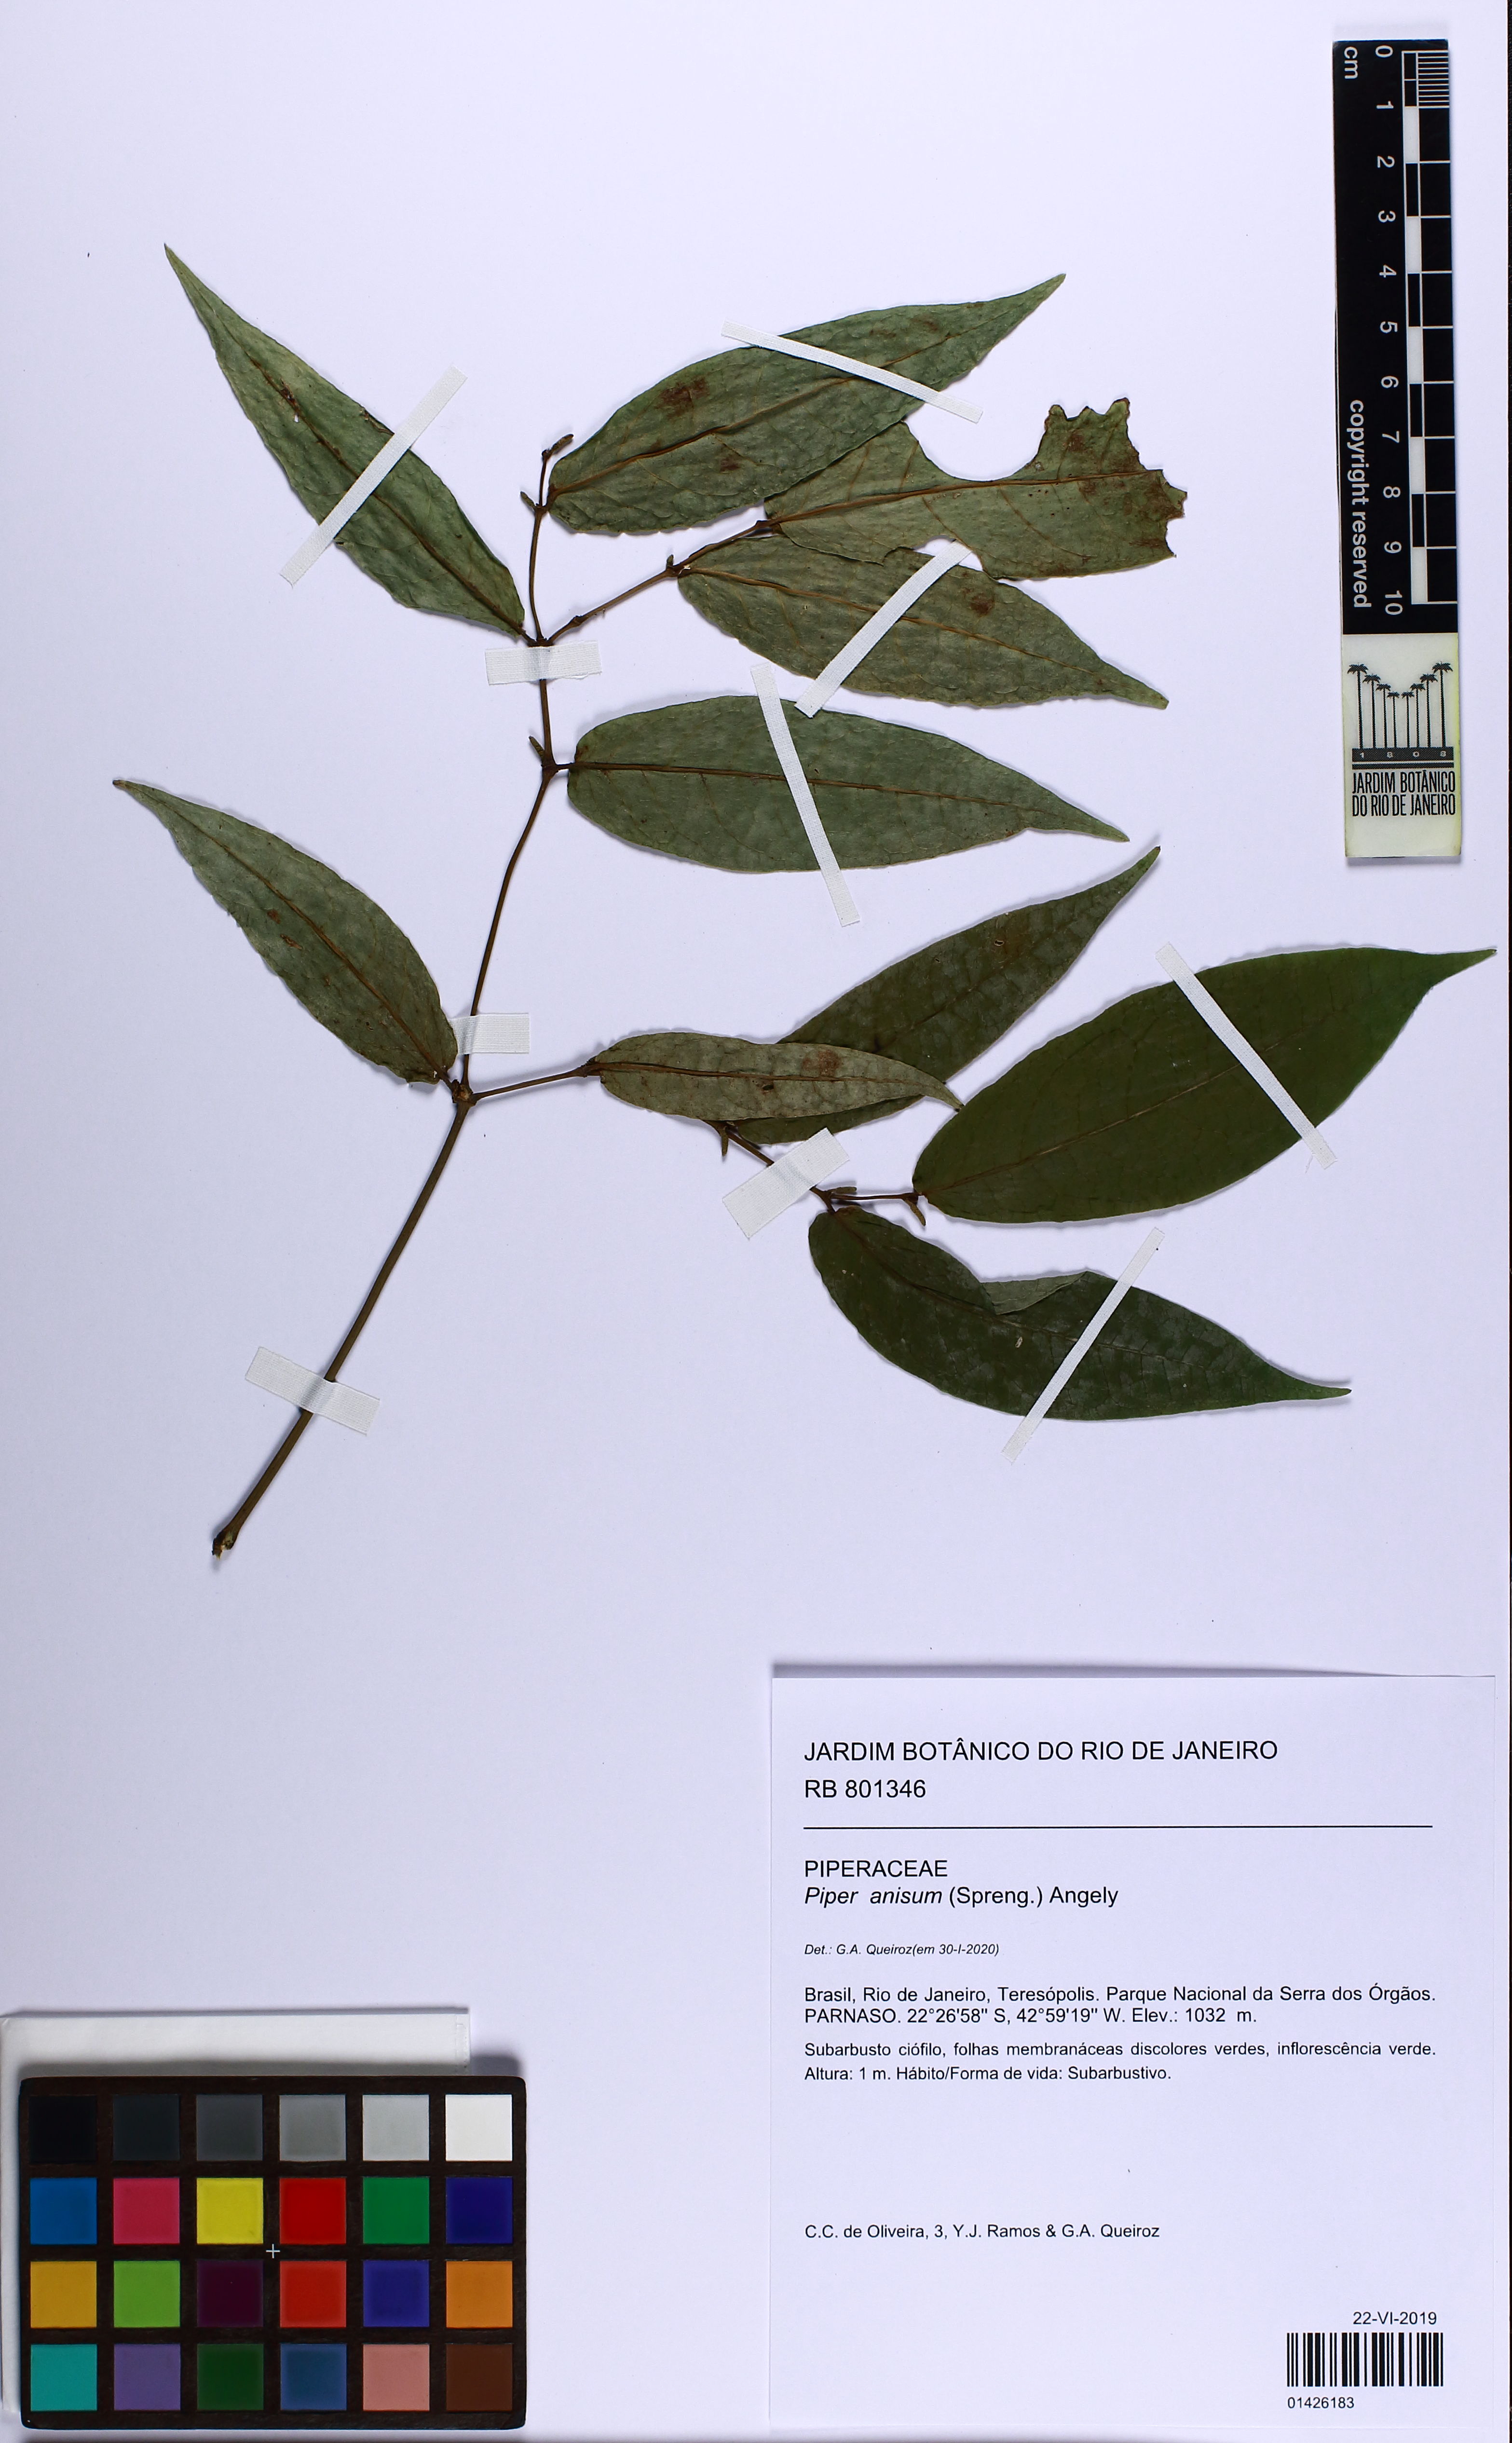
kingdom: Plantae
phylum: Tracheophyta
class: Magnoliopsida
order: Piperales
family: Piperaceae
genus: Piper
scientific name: Piper anisum
